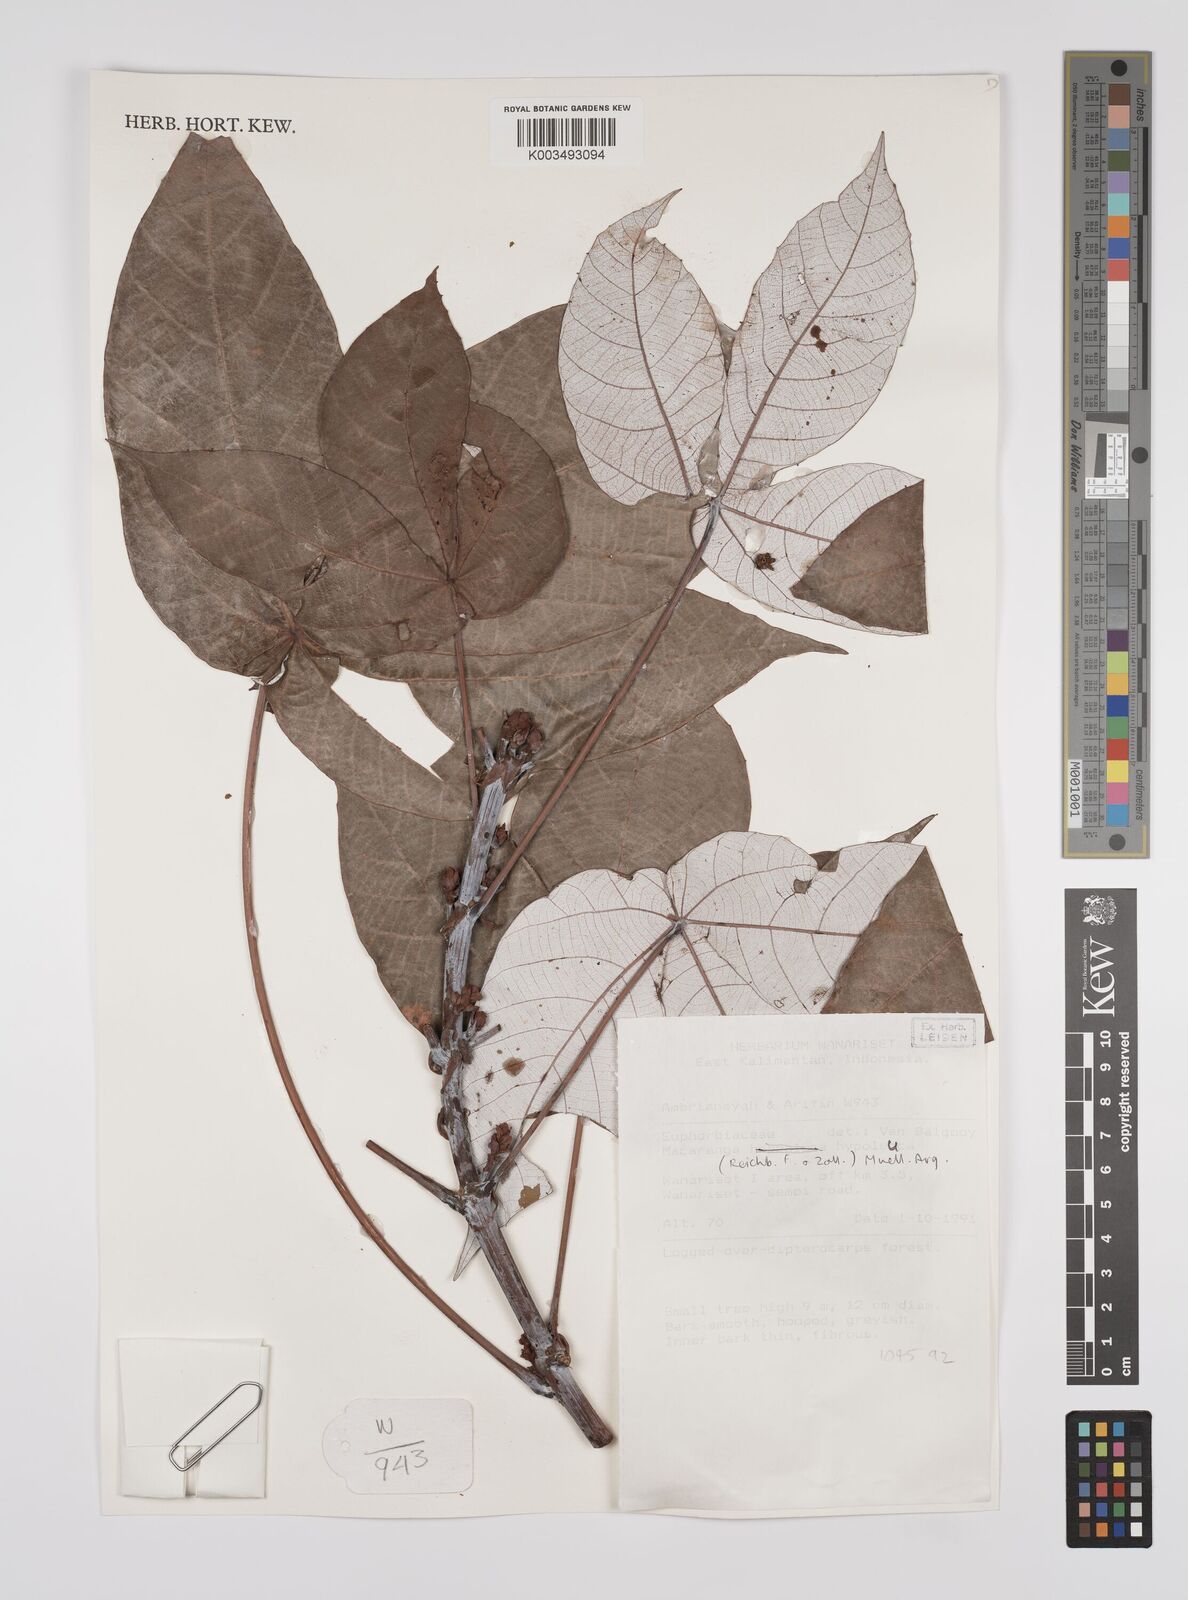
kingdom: Plantae
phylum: Tracheophyta
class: Magnoliopsida
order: Malpighiales
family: Euphorbiaceae
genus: Macaranga
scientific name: Macaranga hypoleuca
